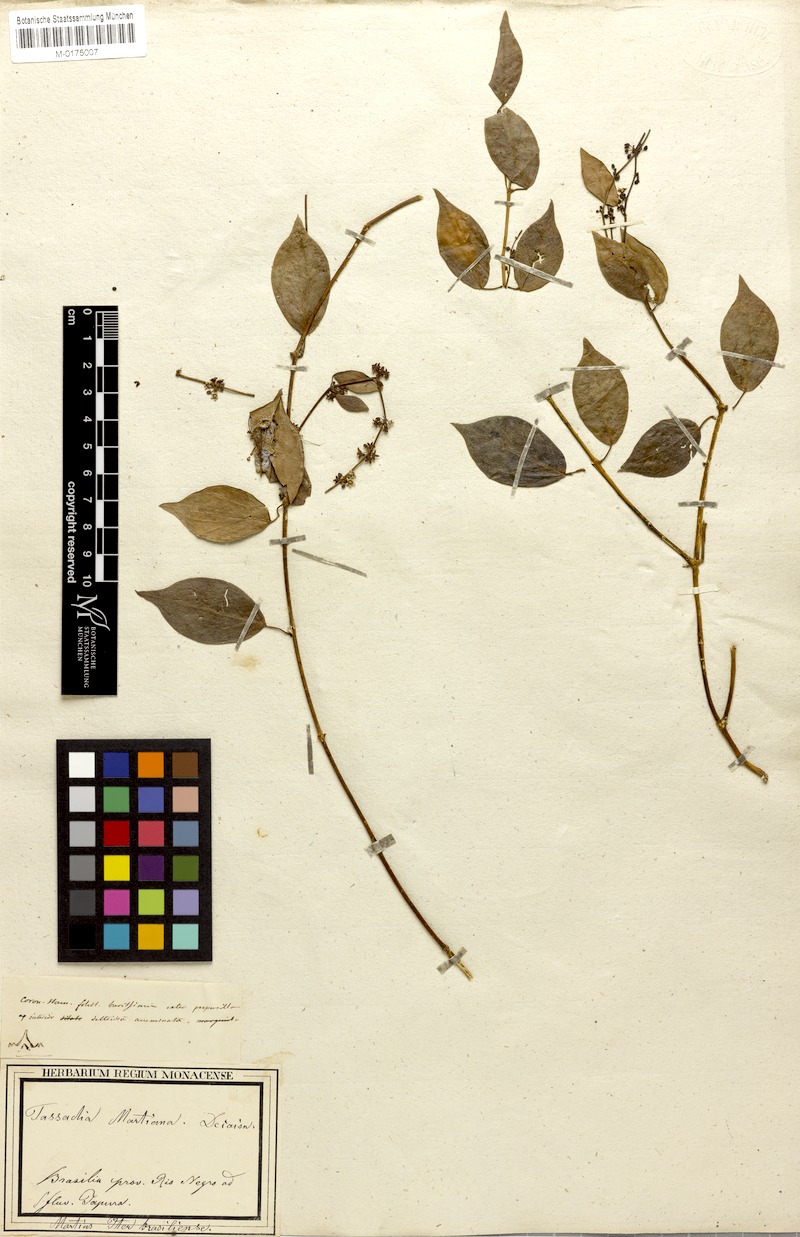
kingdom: Plantae
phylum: Tracheophyta
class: Magnoliopsida
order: Gentianales
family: Apocynaceae
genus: Tassadia
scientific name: Tassadia martiana
